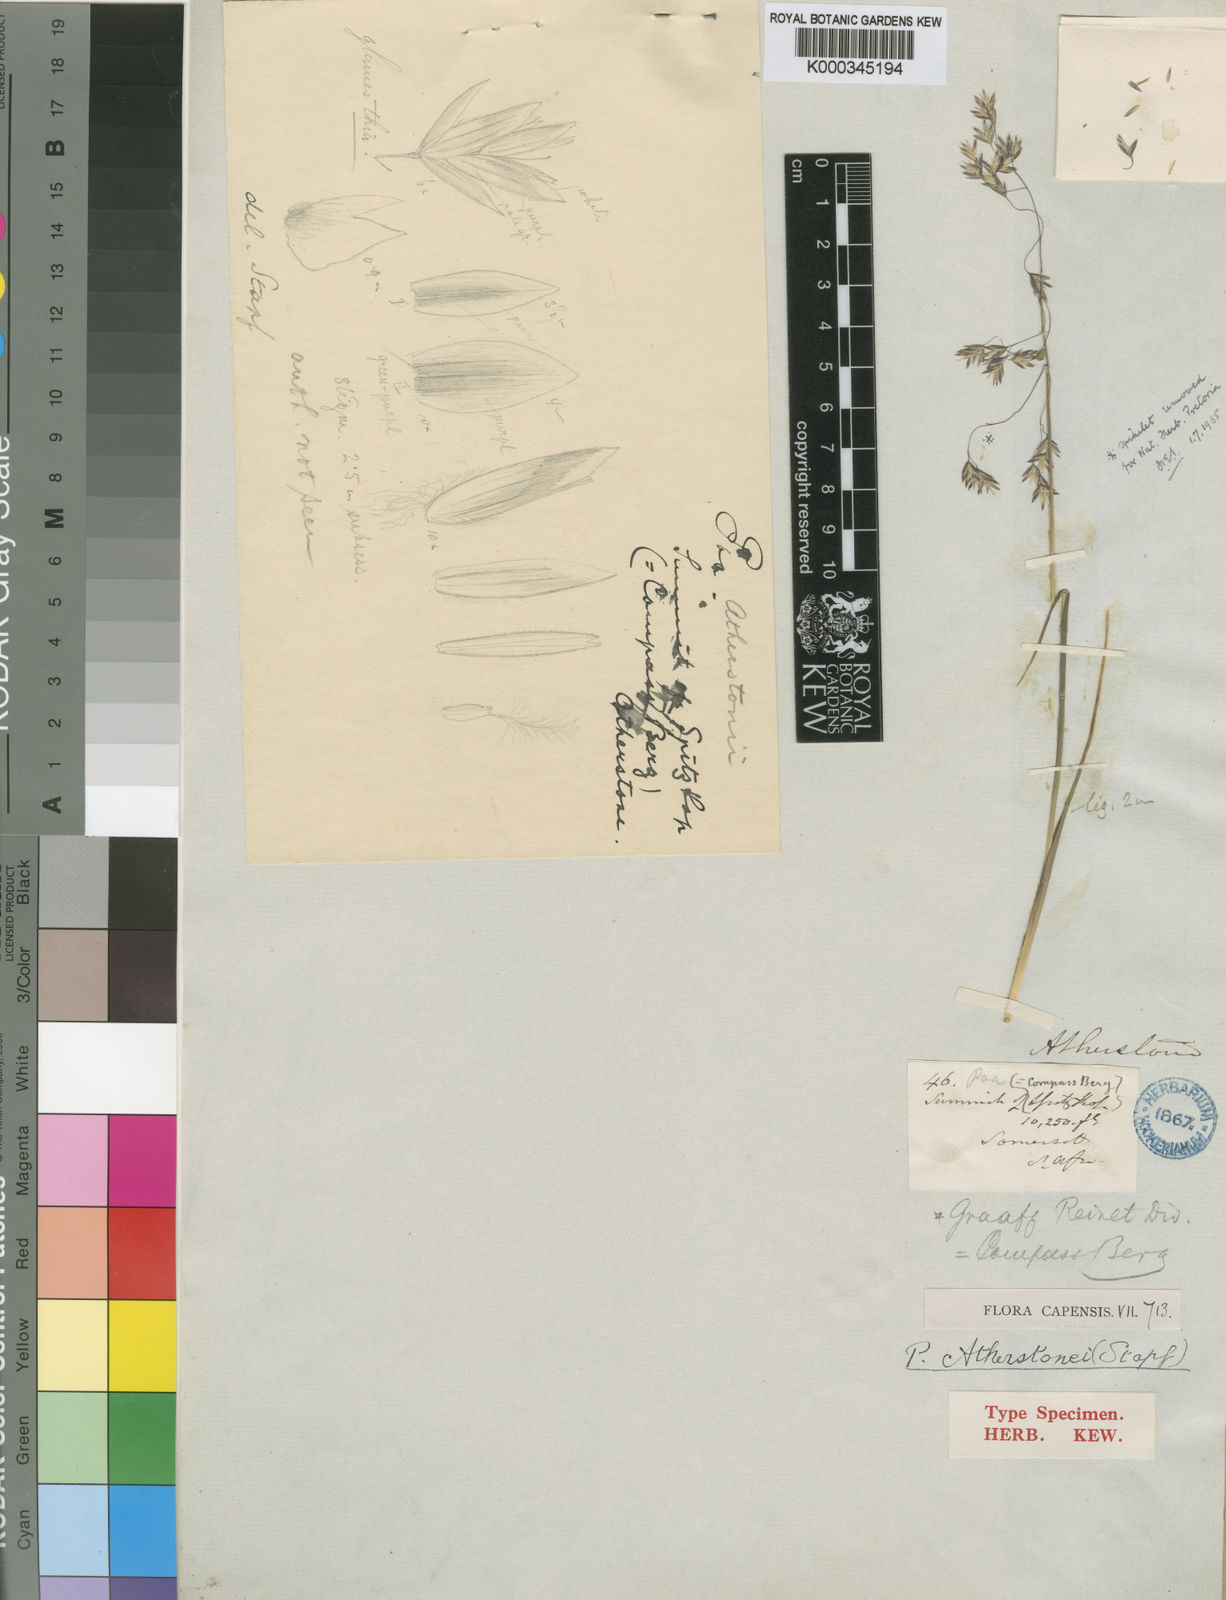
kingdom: Plantae
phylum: Tracheophyta
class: Liliopsida
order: Poales
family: Poaceae
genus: Poa
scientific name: Poa binata
